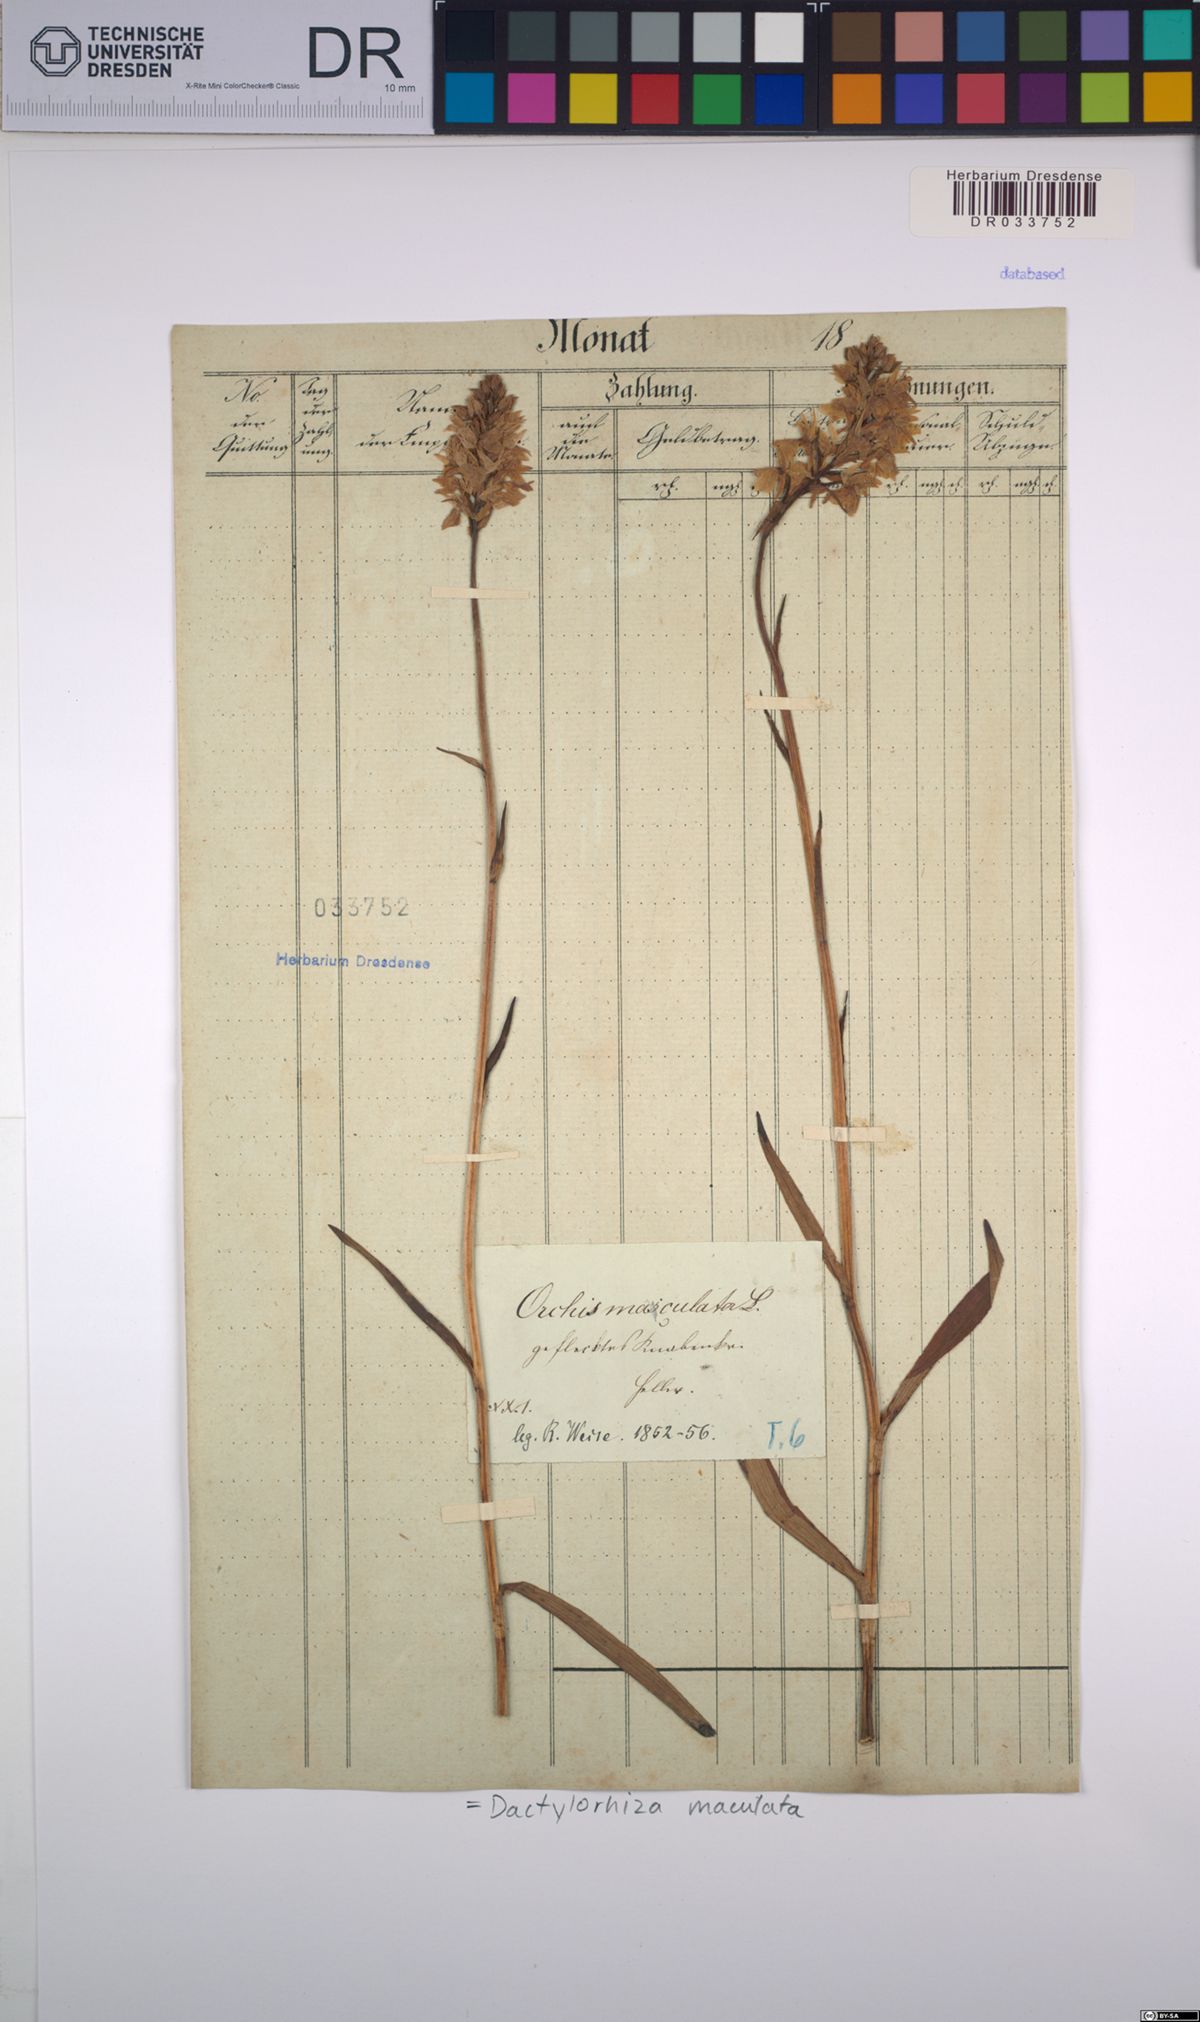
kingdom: Plantae
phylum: Tracheophyta
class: Liliopsida
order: Asparagales
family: Orchidaceae
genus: Dactylorhiza
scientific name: Dactylorhiza maculata
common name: Heath spotted-orchid
